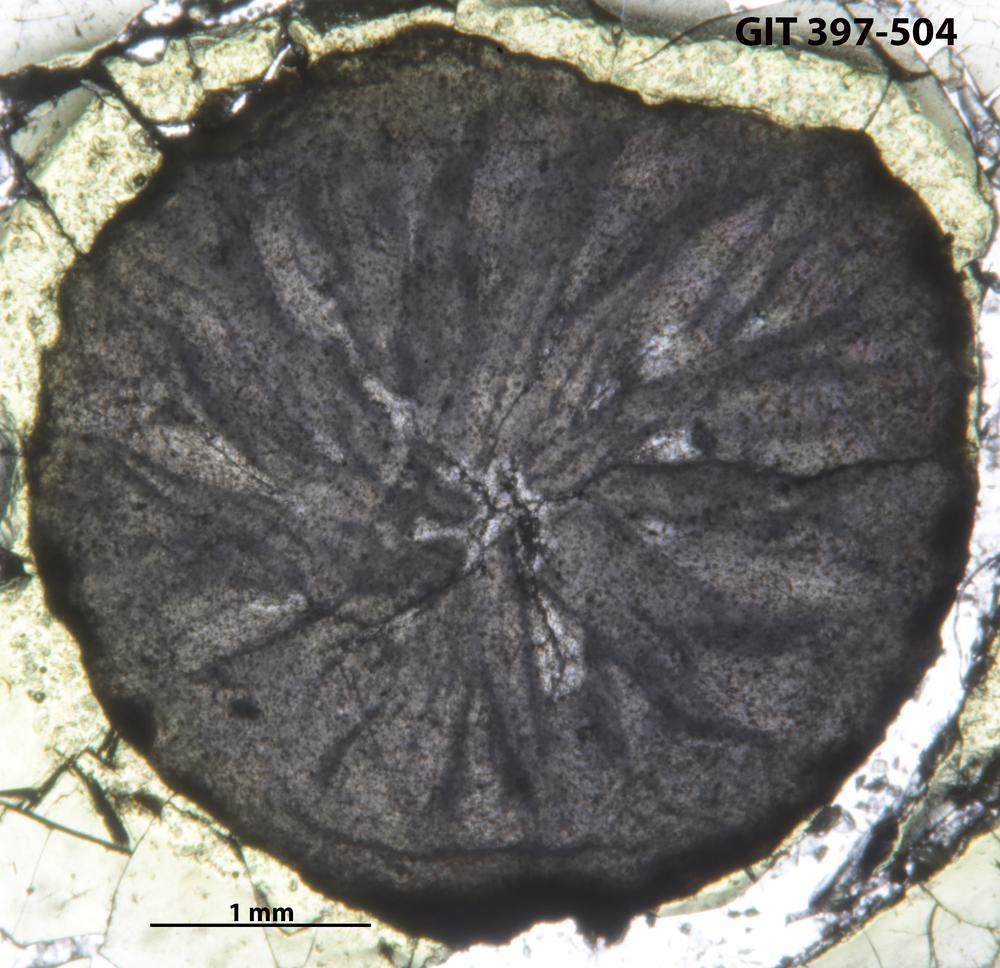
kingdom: Animalia
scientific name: Animalia
